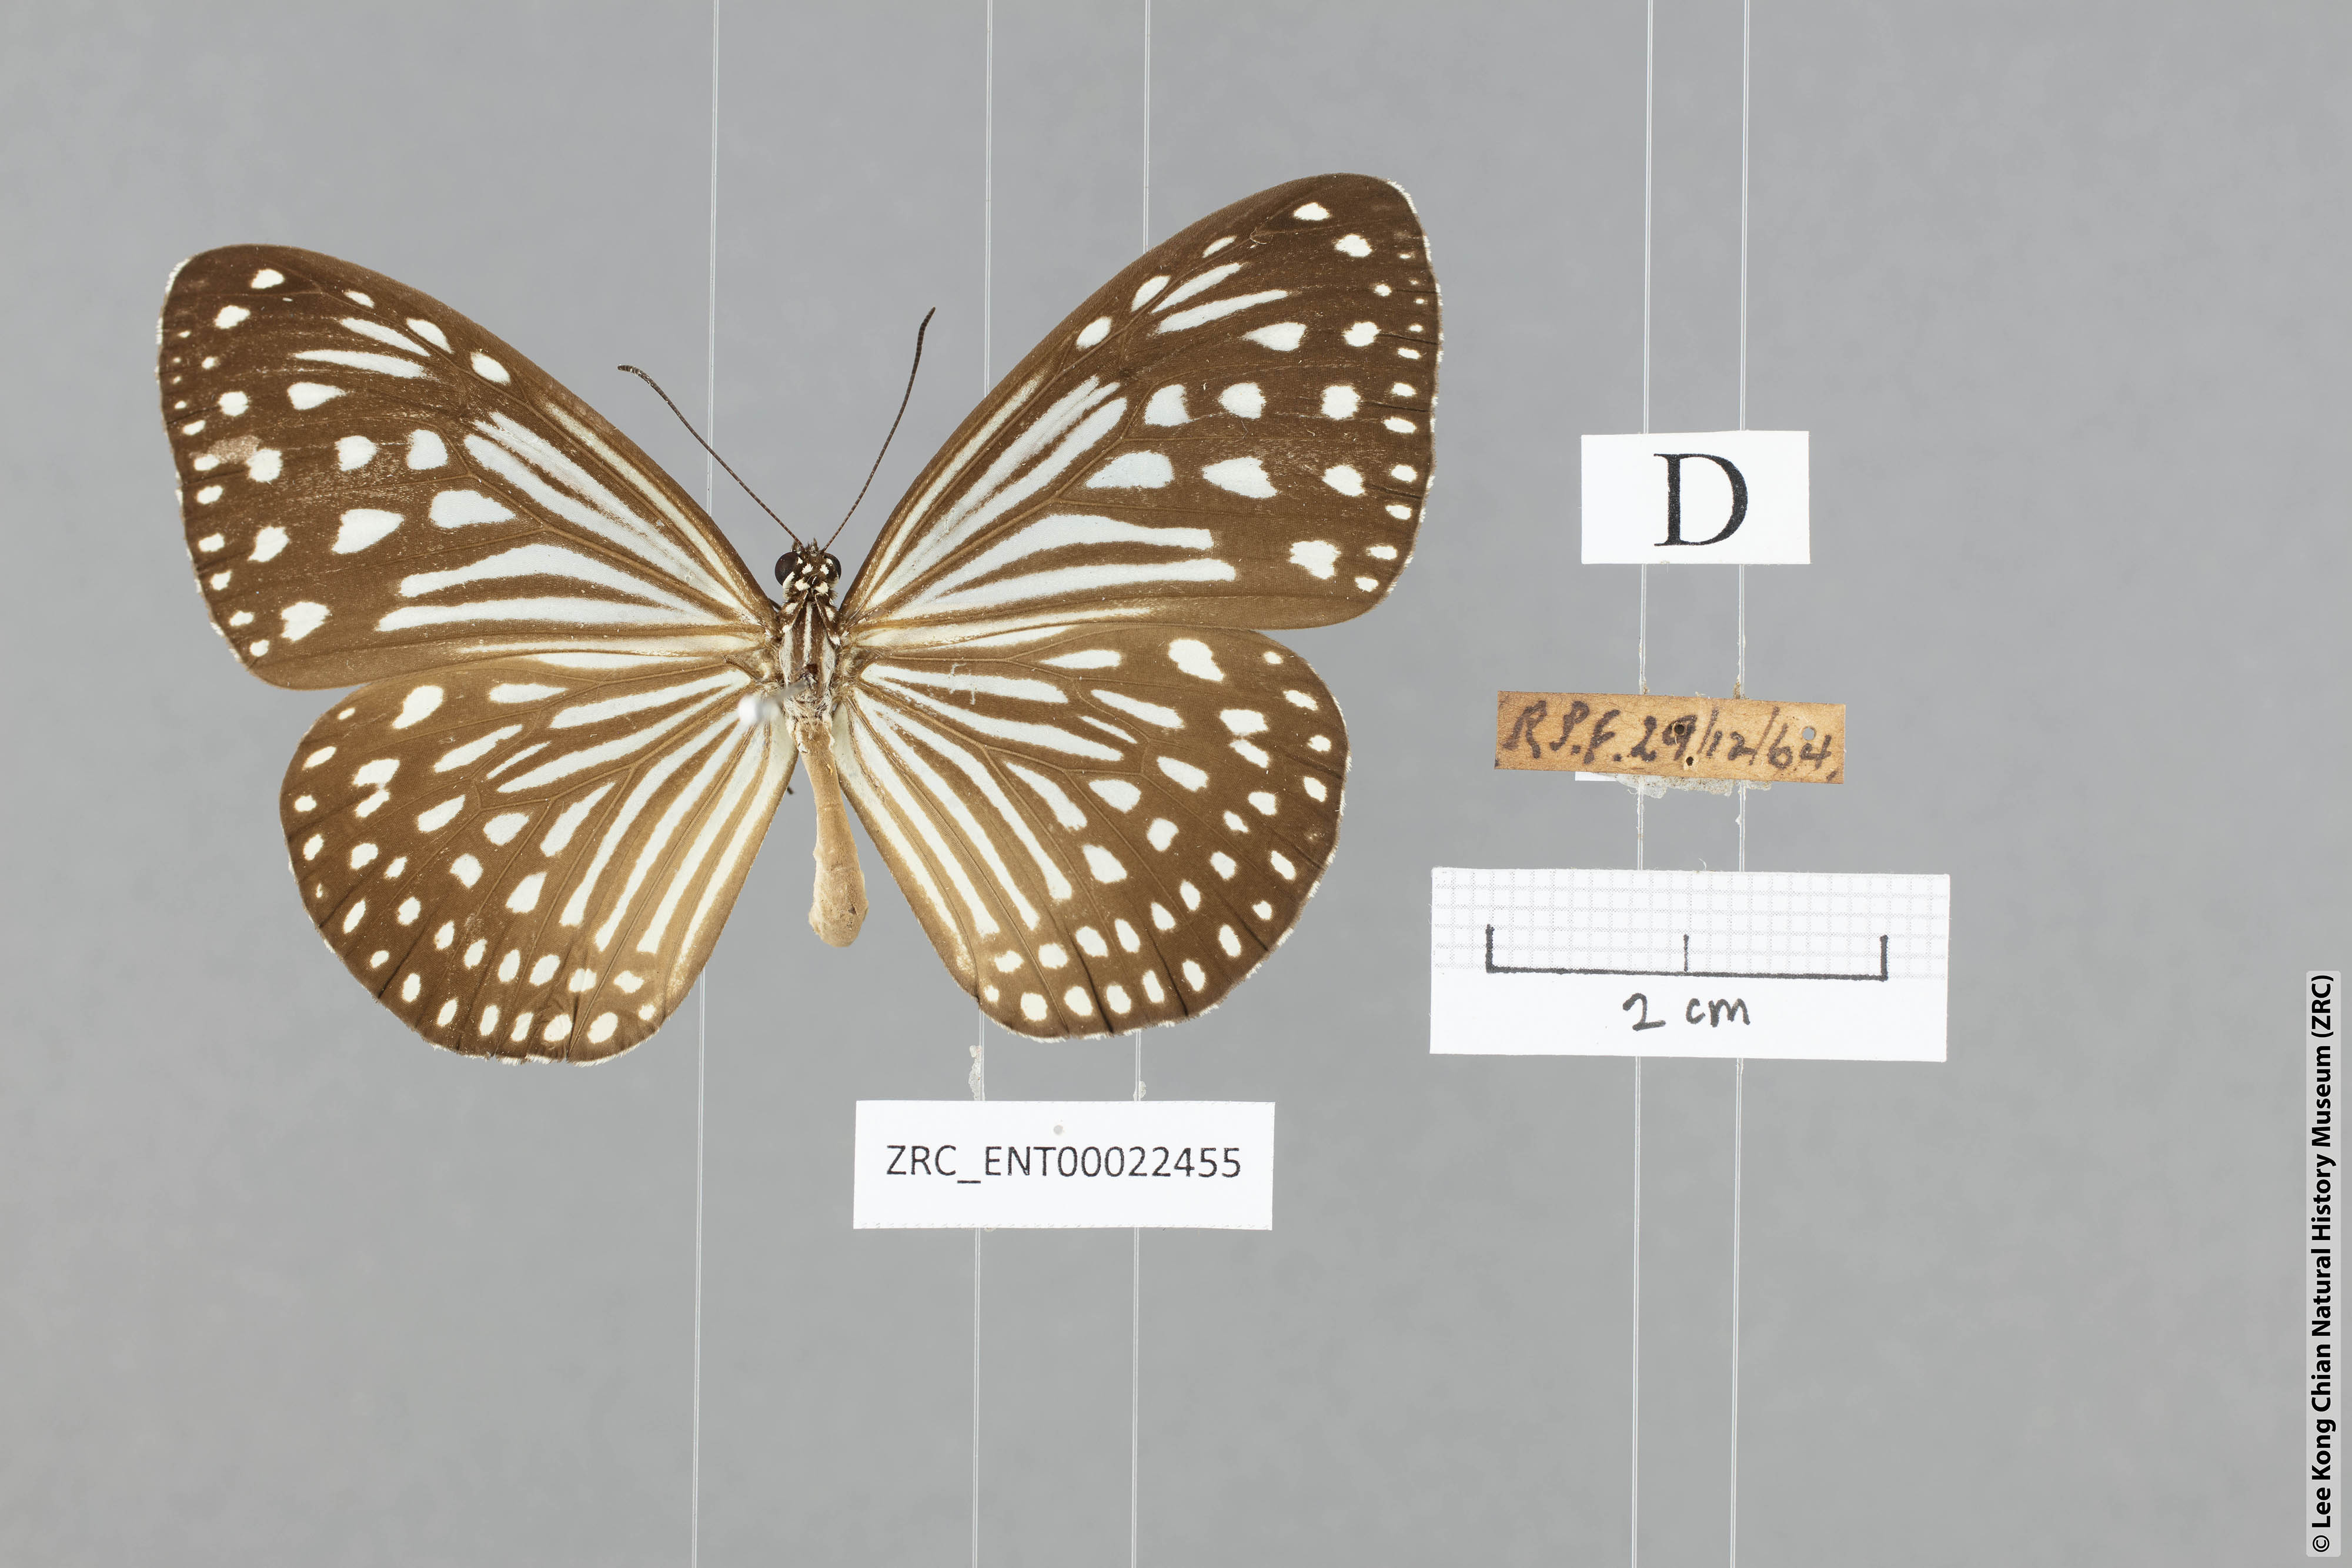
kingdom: Animalia
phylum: Arthropoda
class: Insecta
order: Lepidoptera
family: Nymphalidae
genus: Parantica
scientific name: Parantica agleoides
